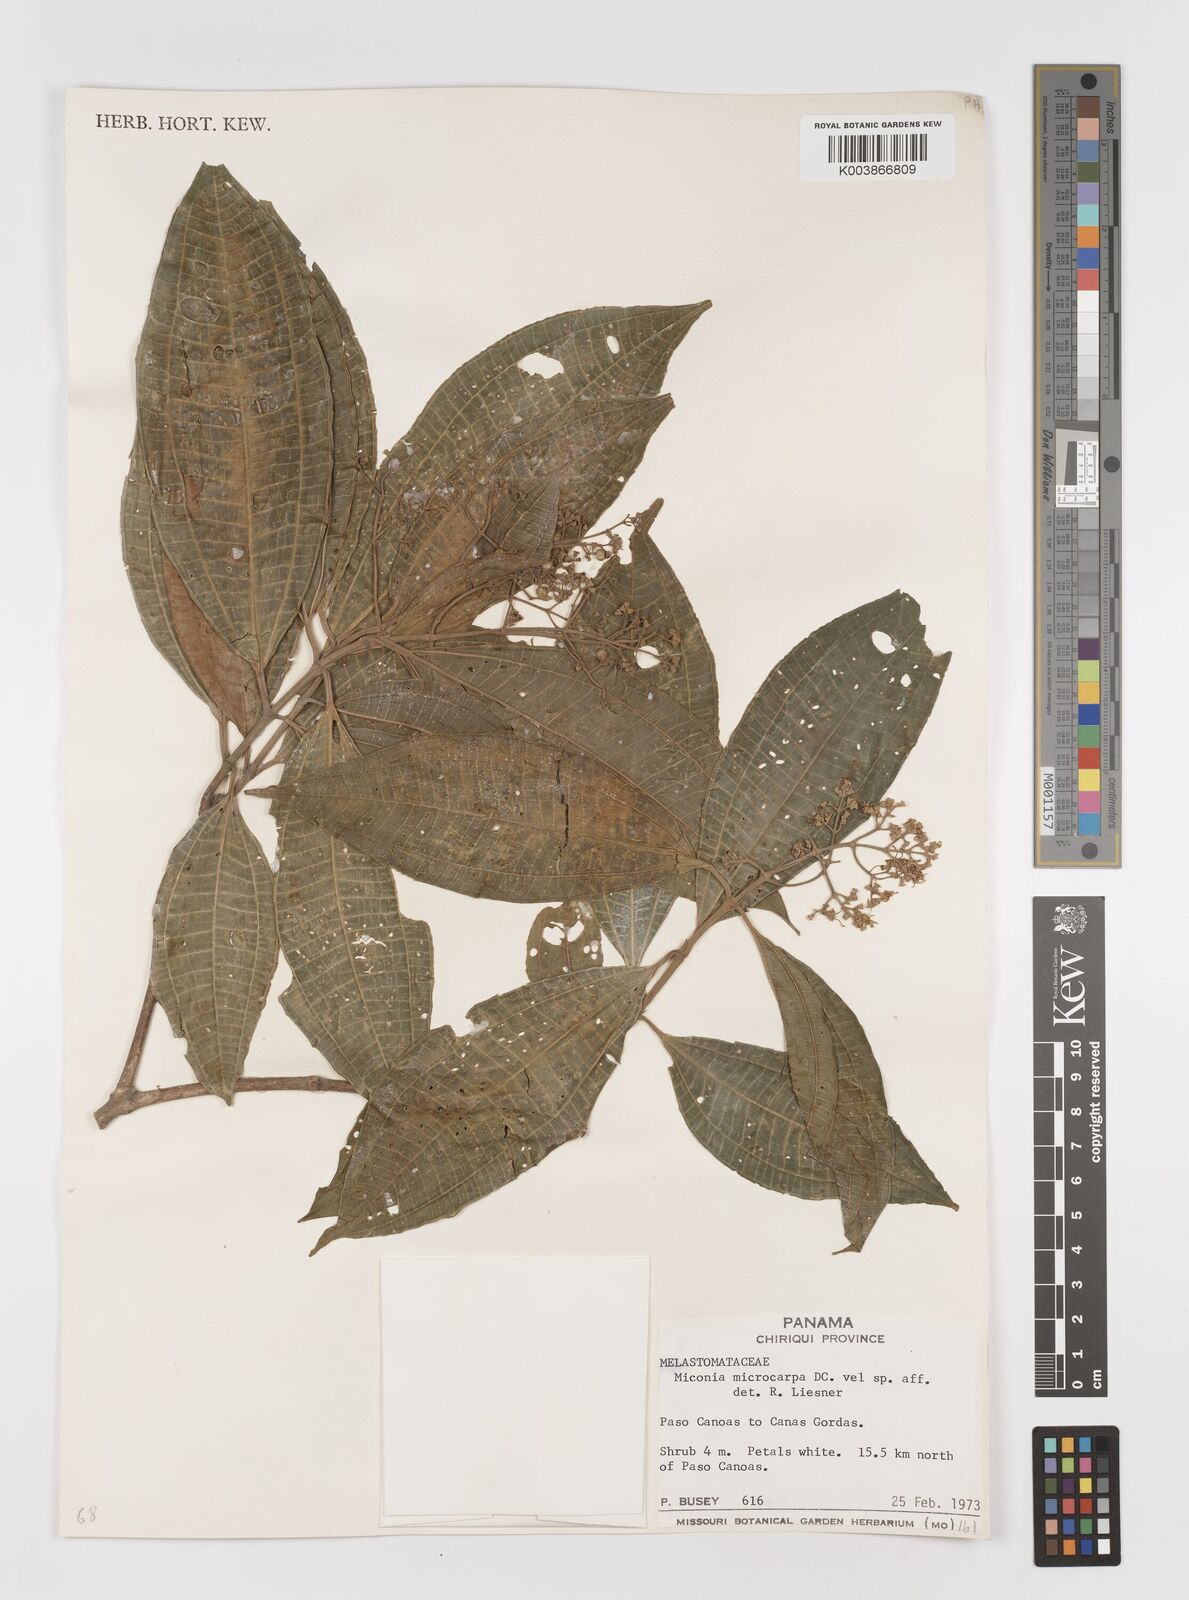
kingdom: Plantae
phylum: Tracheophyta
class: Magnoliopsida
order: Myrtales
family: Melastomataceae
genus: Miconia
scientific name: Miconia
